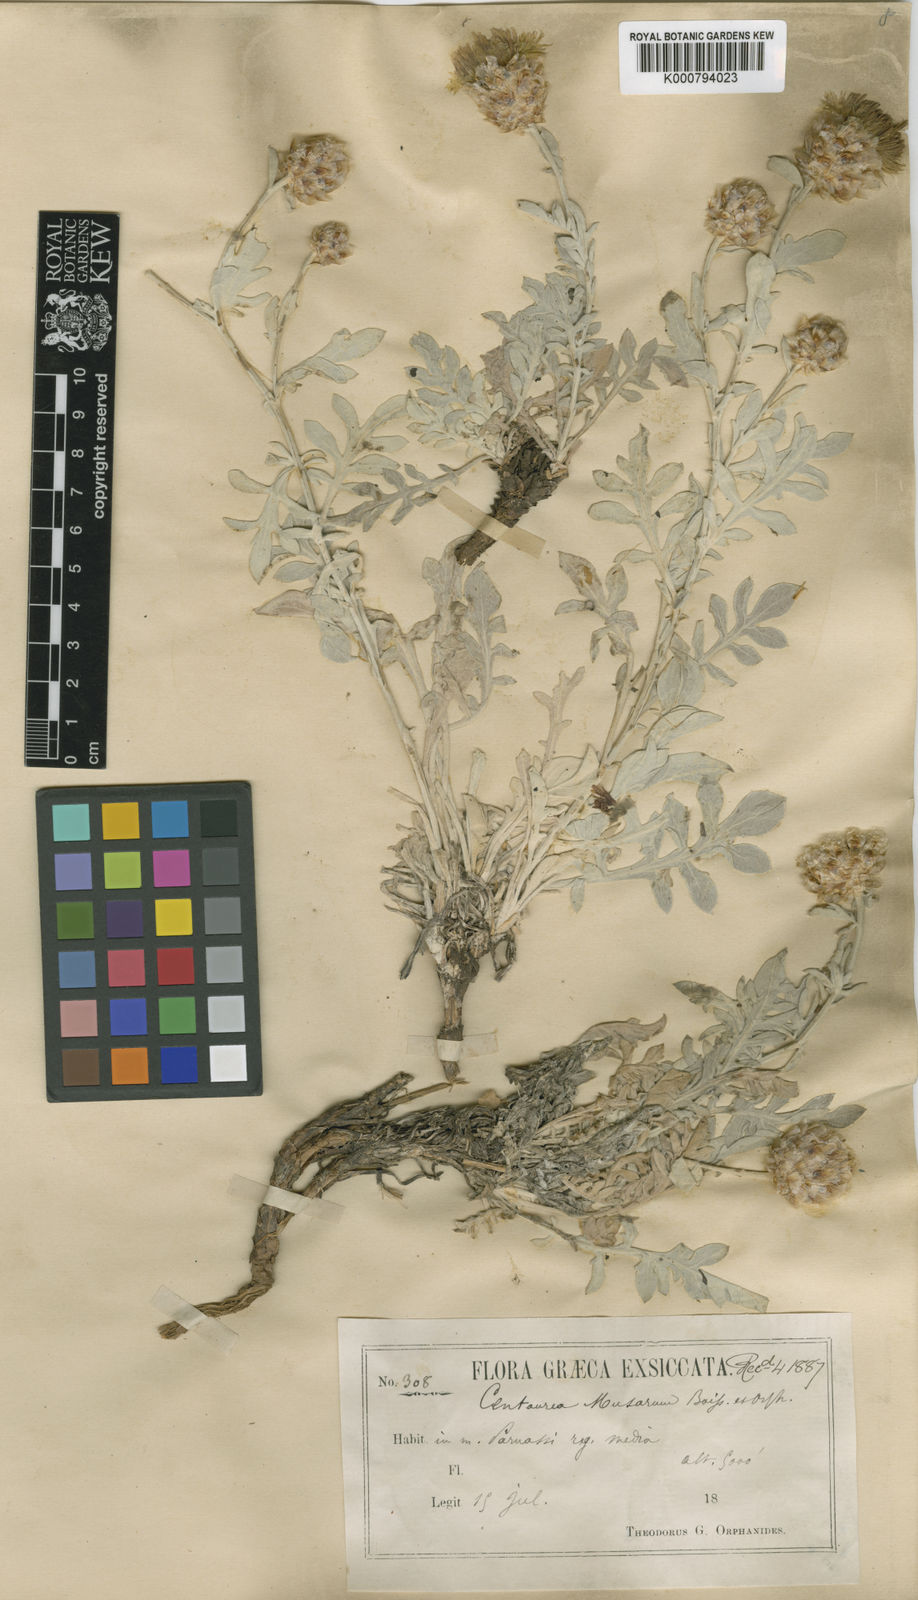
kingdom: Plantae
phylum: Tracheophyta
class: Magnoliopsida
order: Asterales
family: Asteraceae
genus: Centaurea
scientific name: Centaurea musarum
